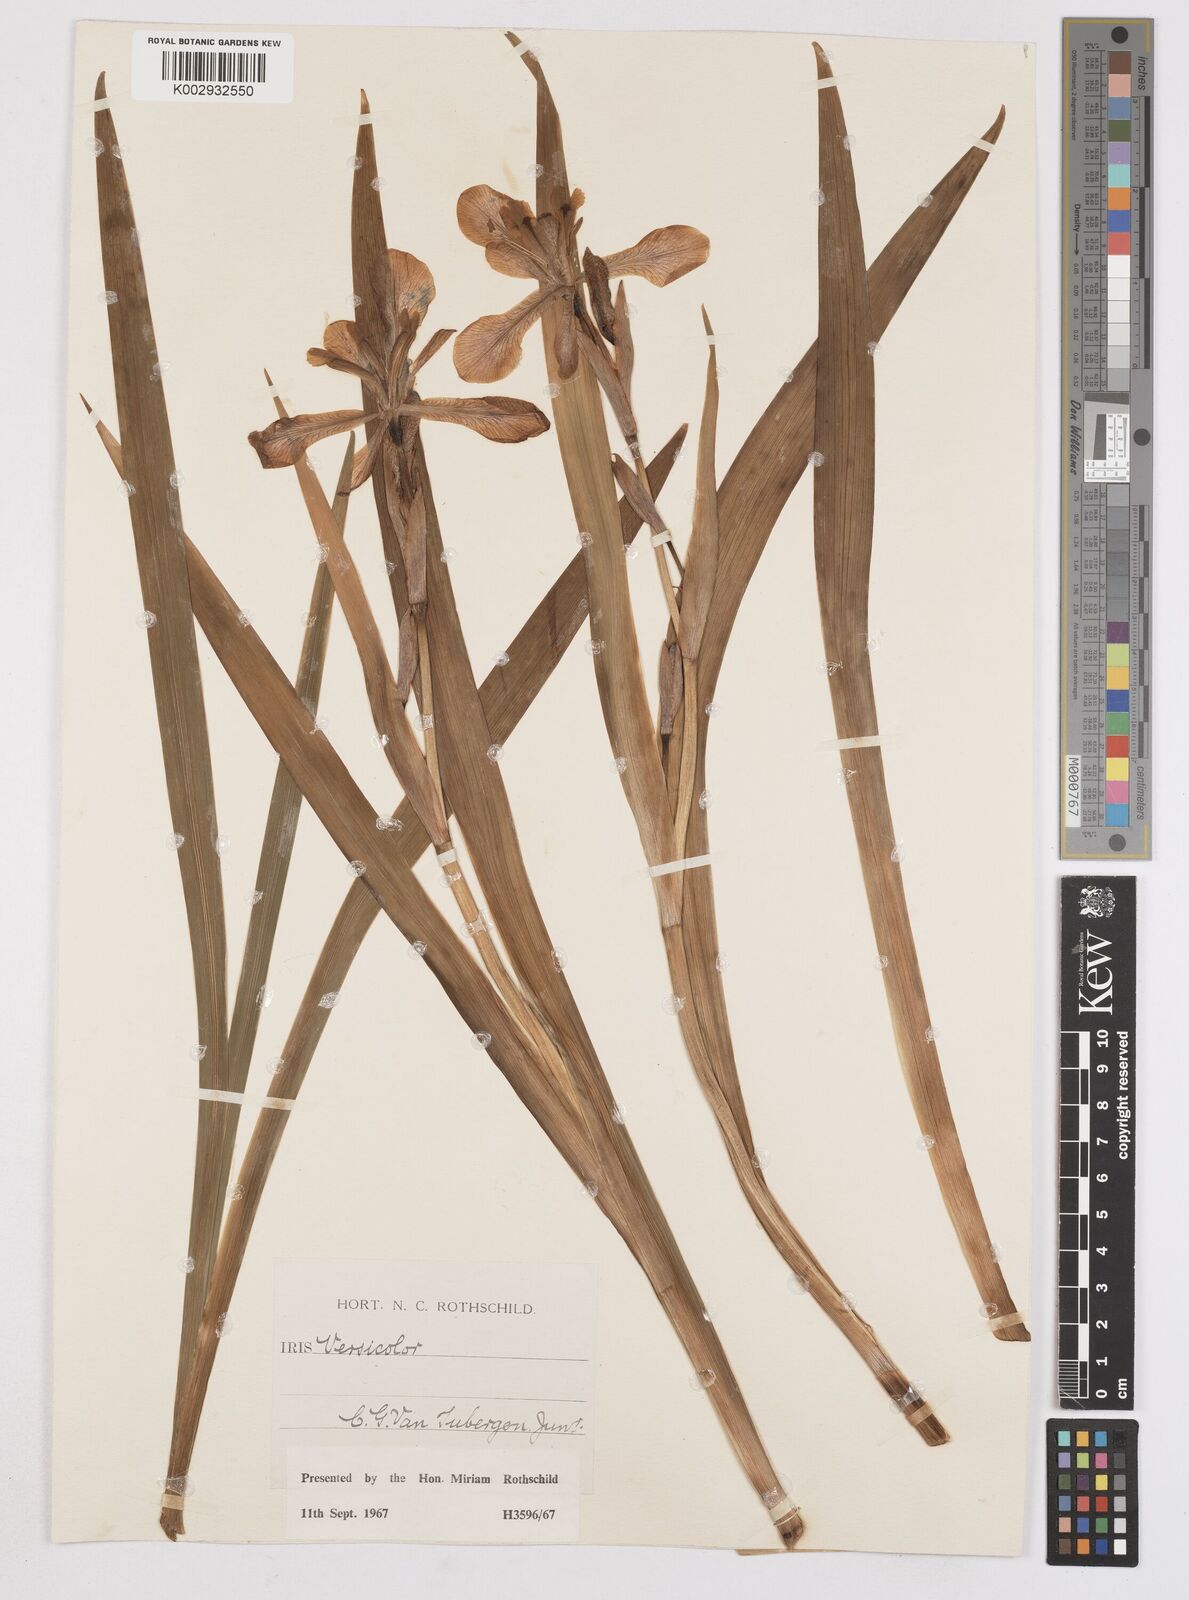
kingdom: Plantae
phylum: Tracheophyta
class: Liliopsida
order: Asparagales
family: Iridaceae
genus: Iris
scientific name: Iris versicolor
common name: Purple iris
